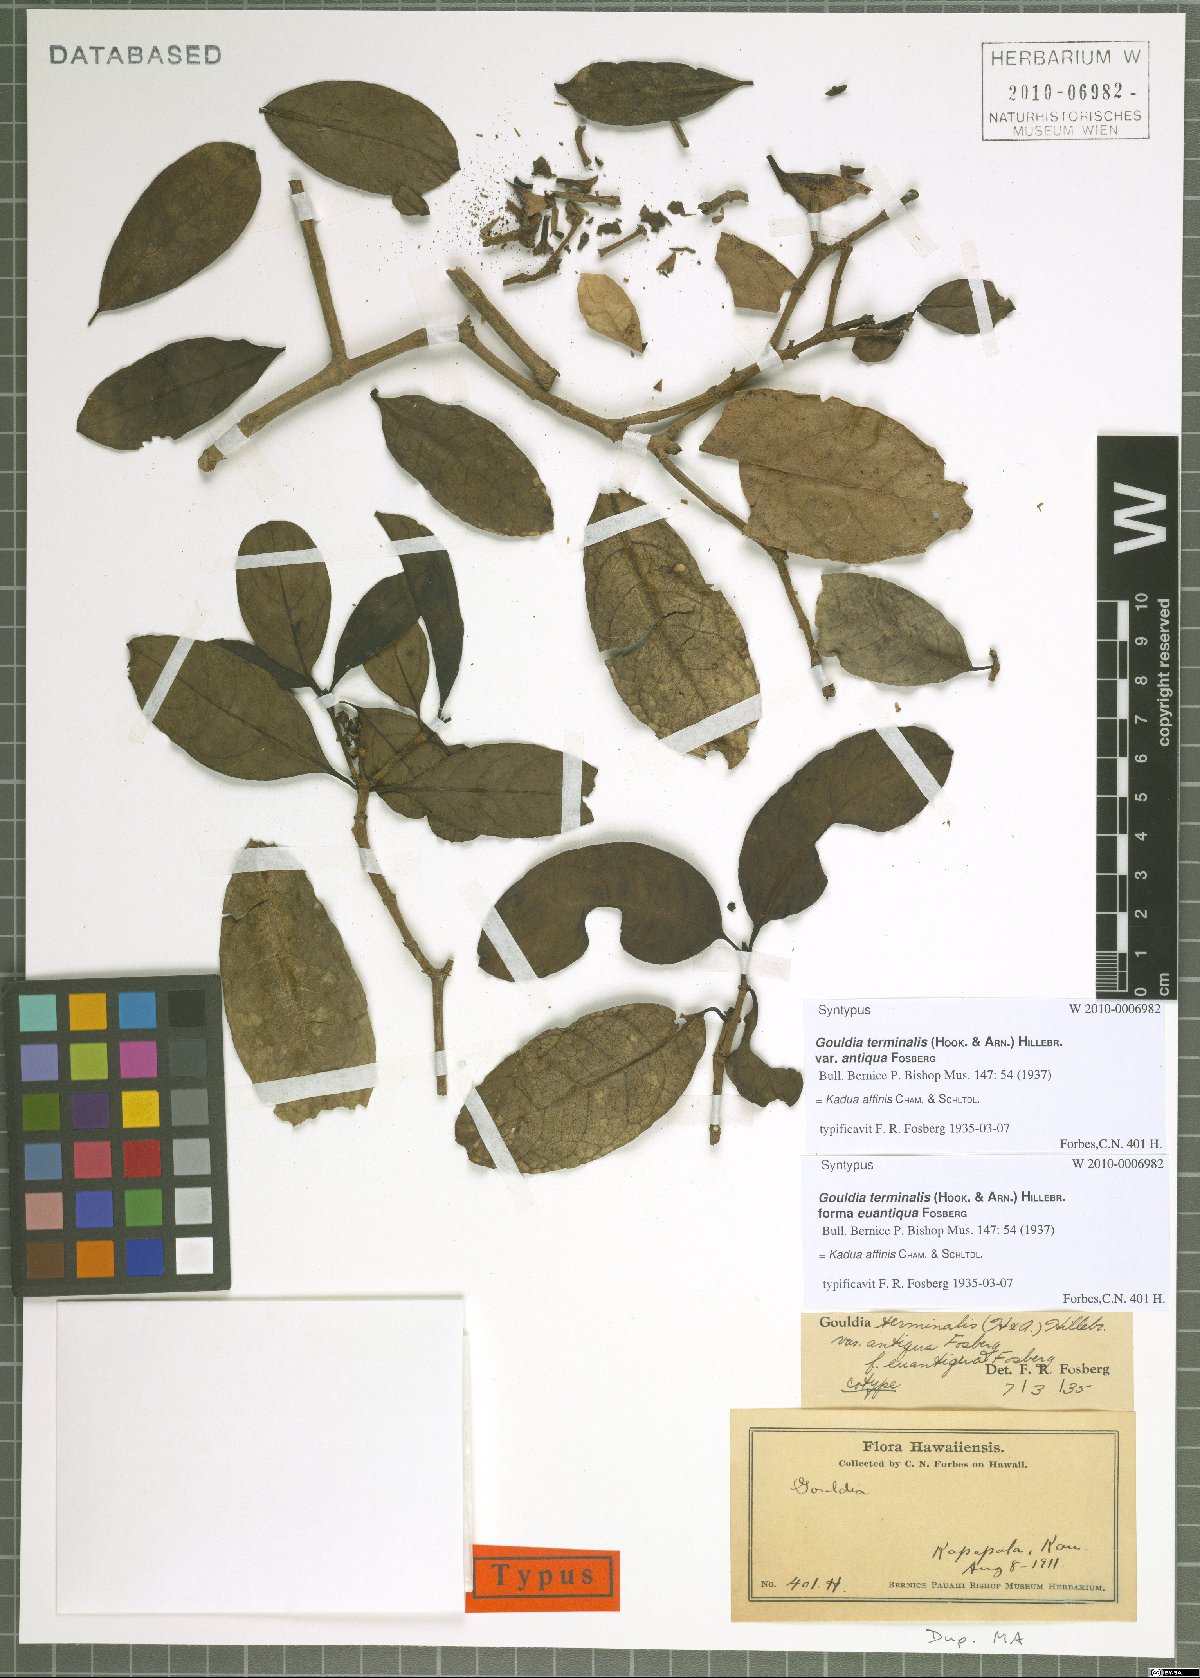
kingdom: Plantae
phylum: Tracheophyta
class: Magnoliopsida
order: Gentianales
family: Rubiaceae
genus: Kadua
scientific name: Kadua affinis
